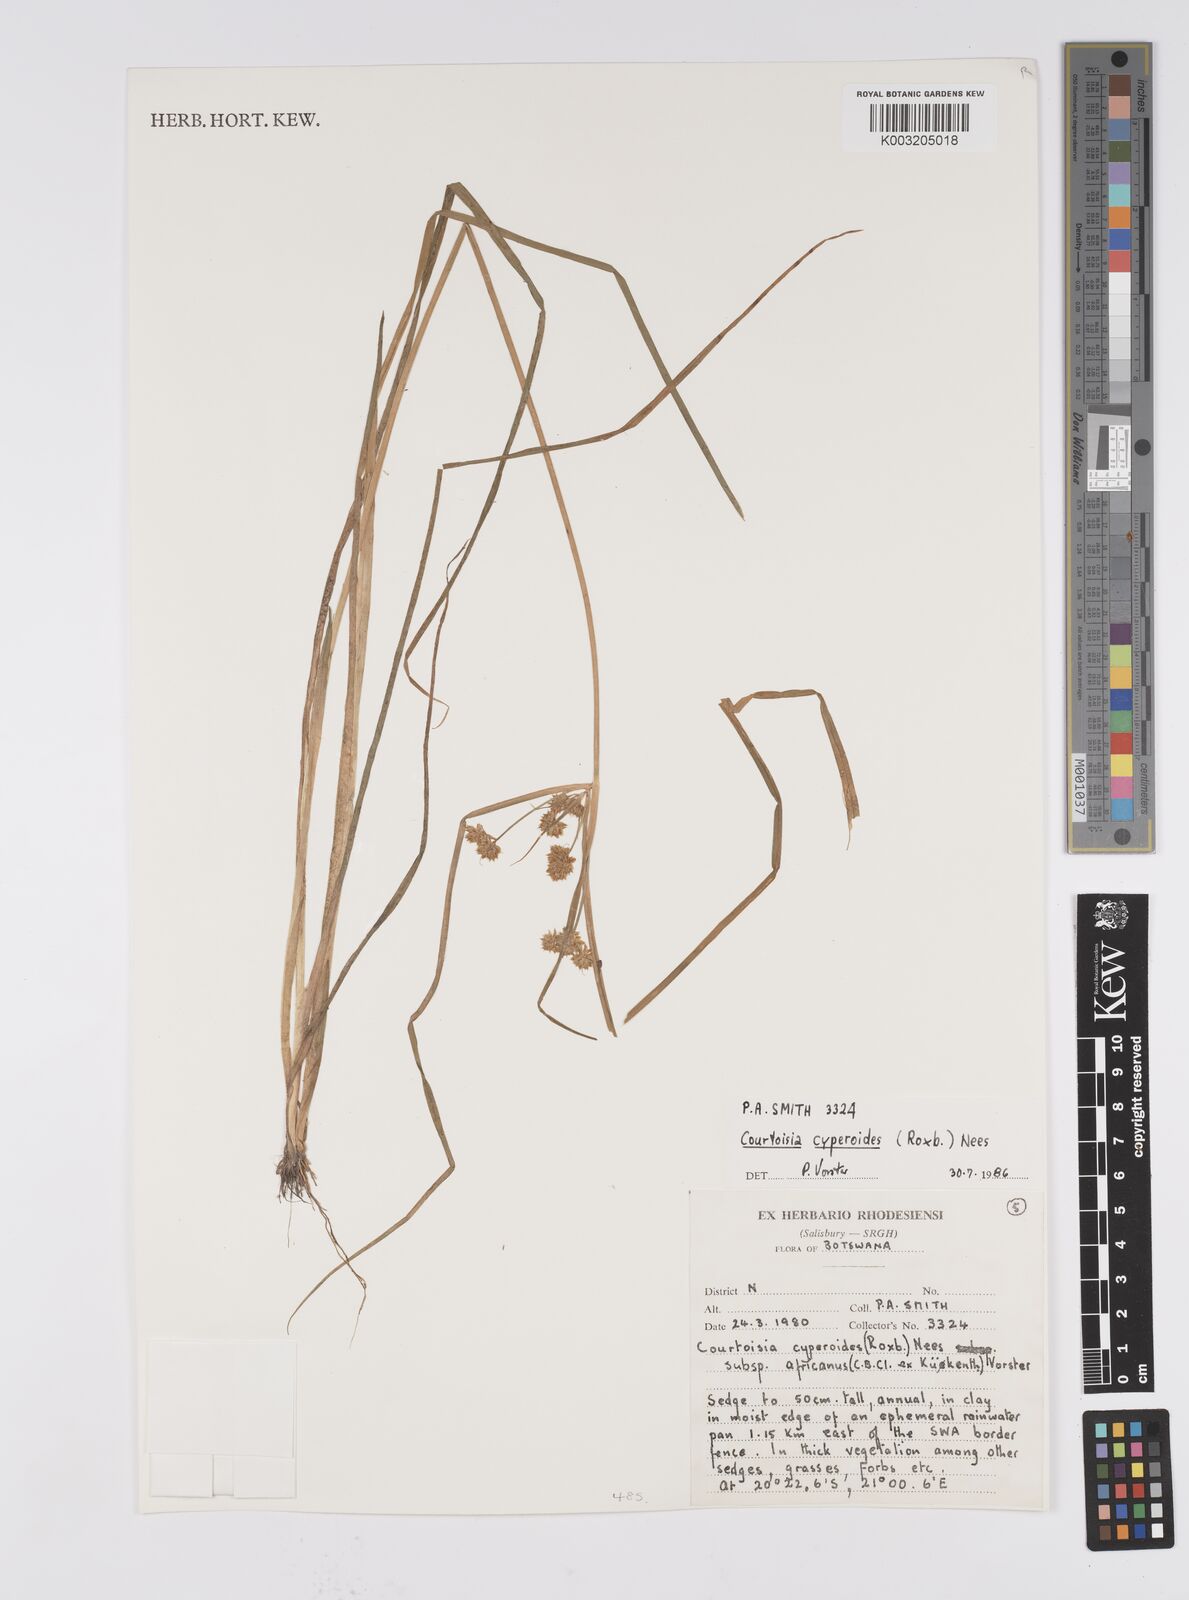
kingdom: Plantae
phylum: Tracheophyta
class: Liliopsida
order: Poales
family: Cyperaceae
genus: Cyperus
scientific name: Cyperus cyperoides
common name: Pacific island flat sedge
